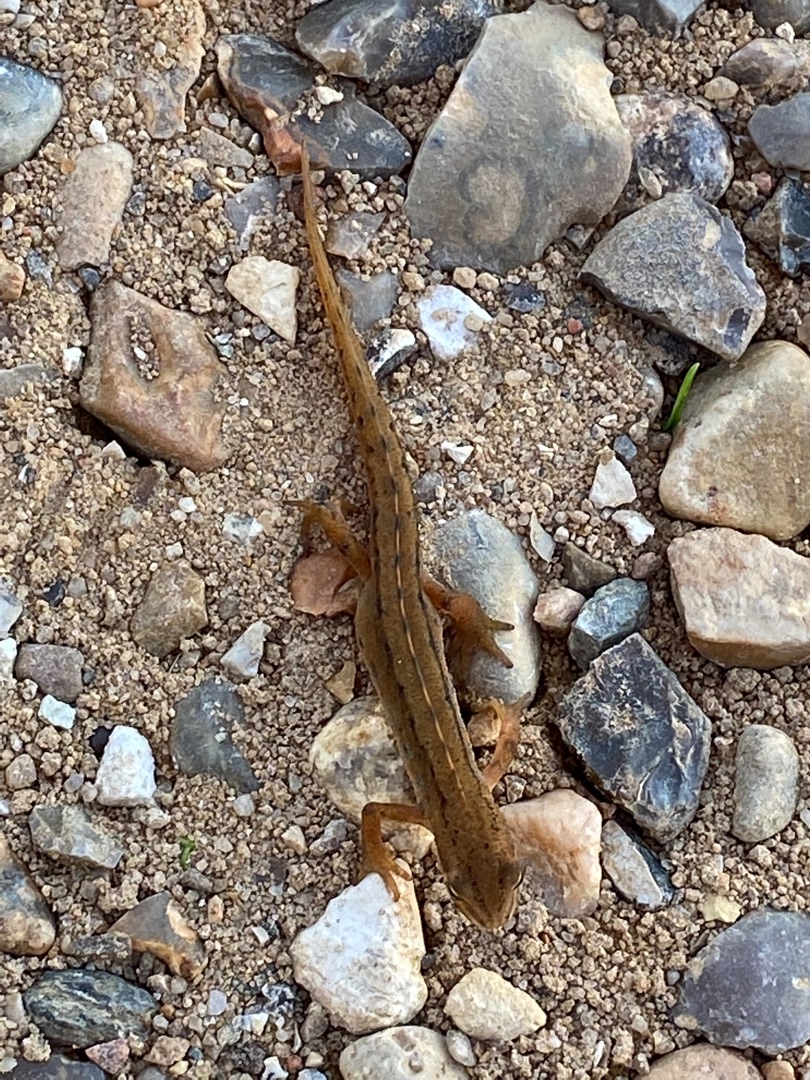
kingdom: Animalia
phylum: Chordata
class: Amphibia
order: Caudata
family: Salamandridae
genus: Lissotriton
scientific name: Lissotriton vulgaris
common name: Lille vandsalamander
